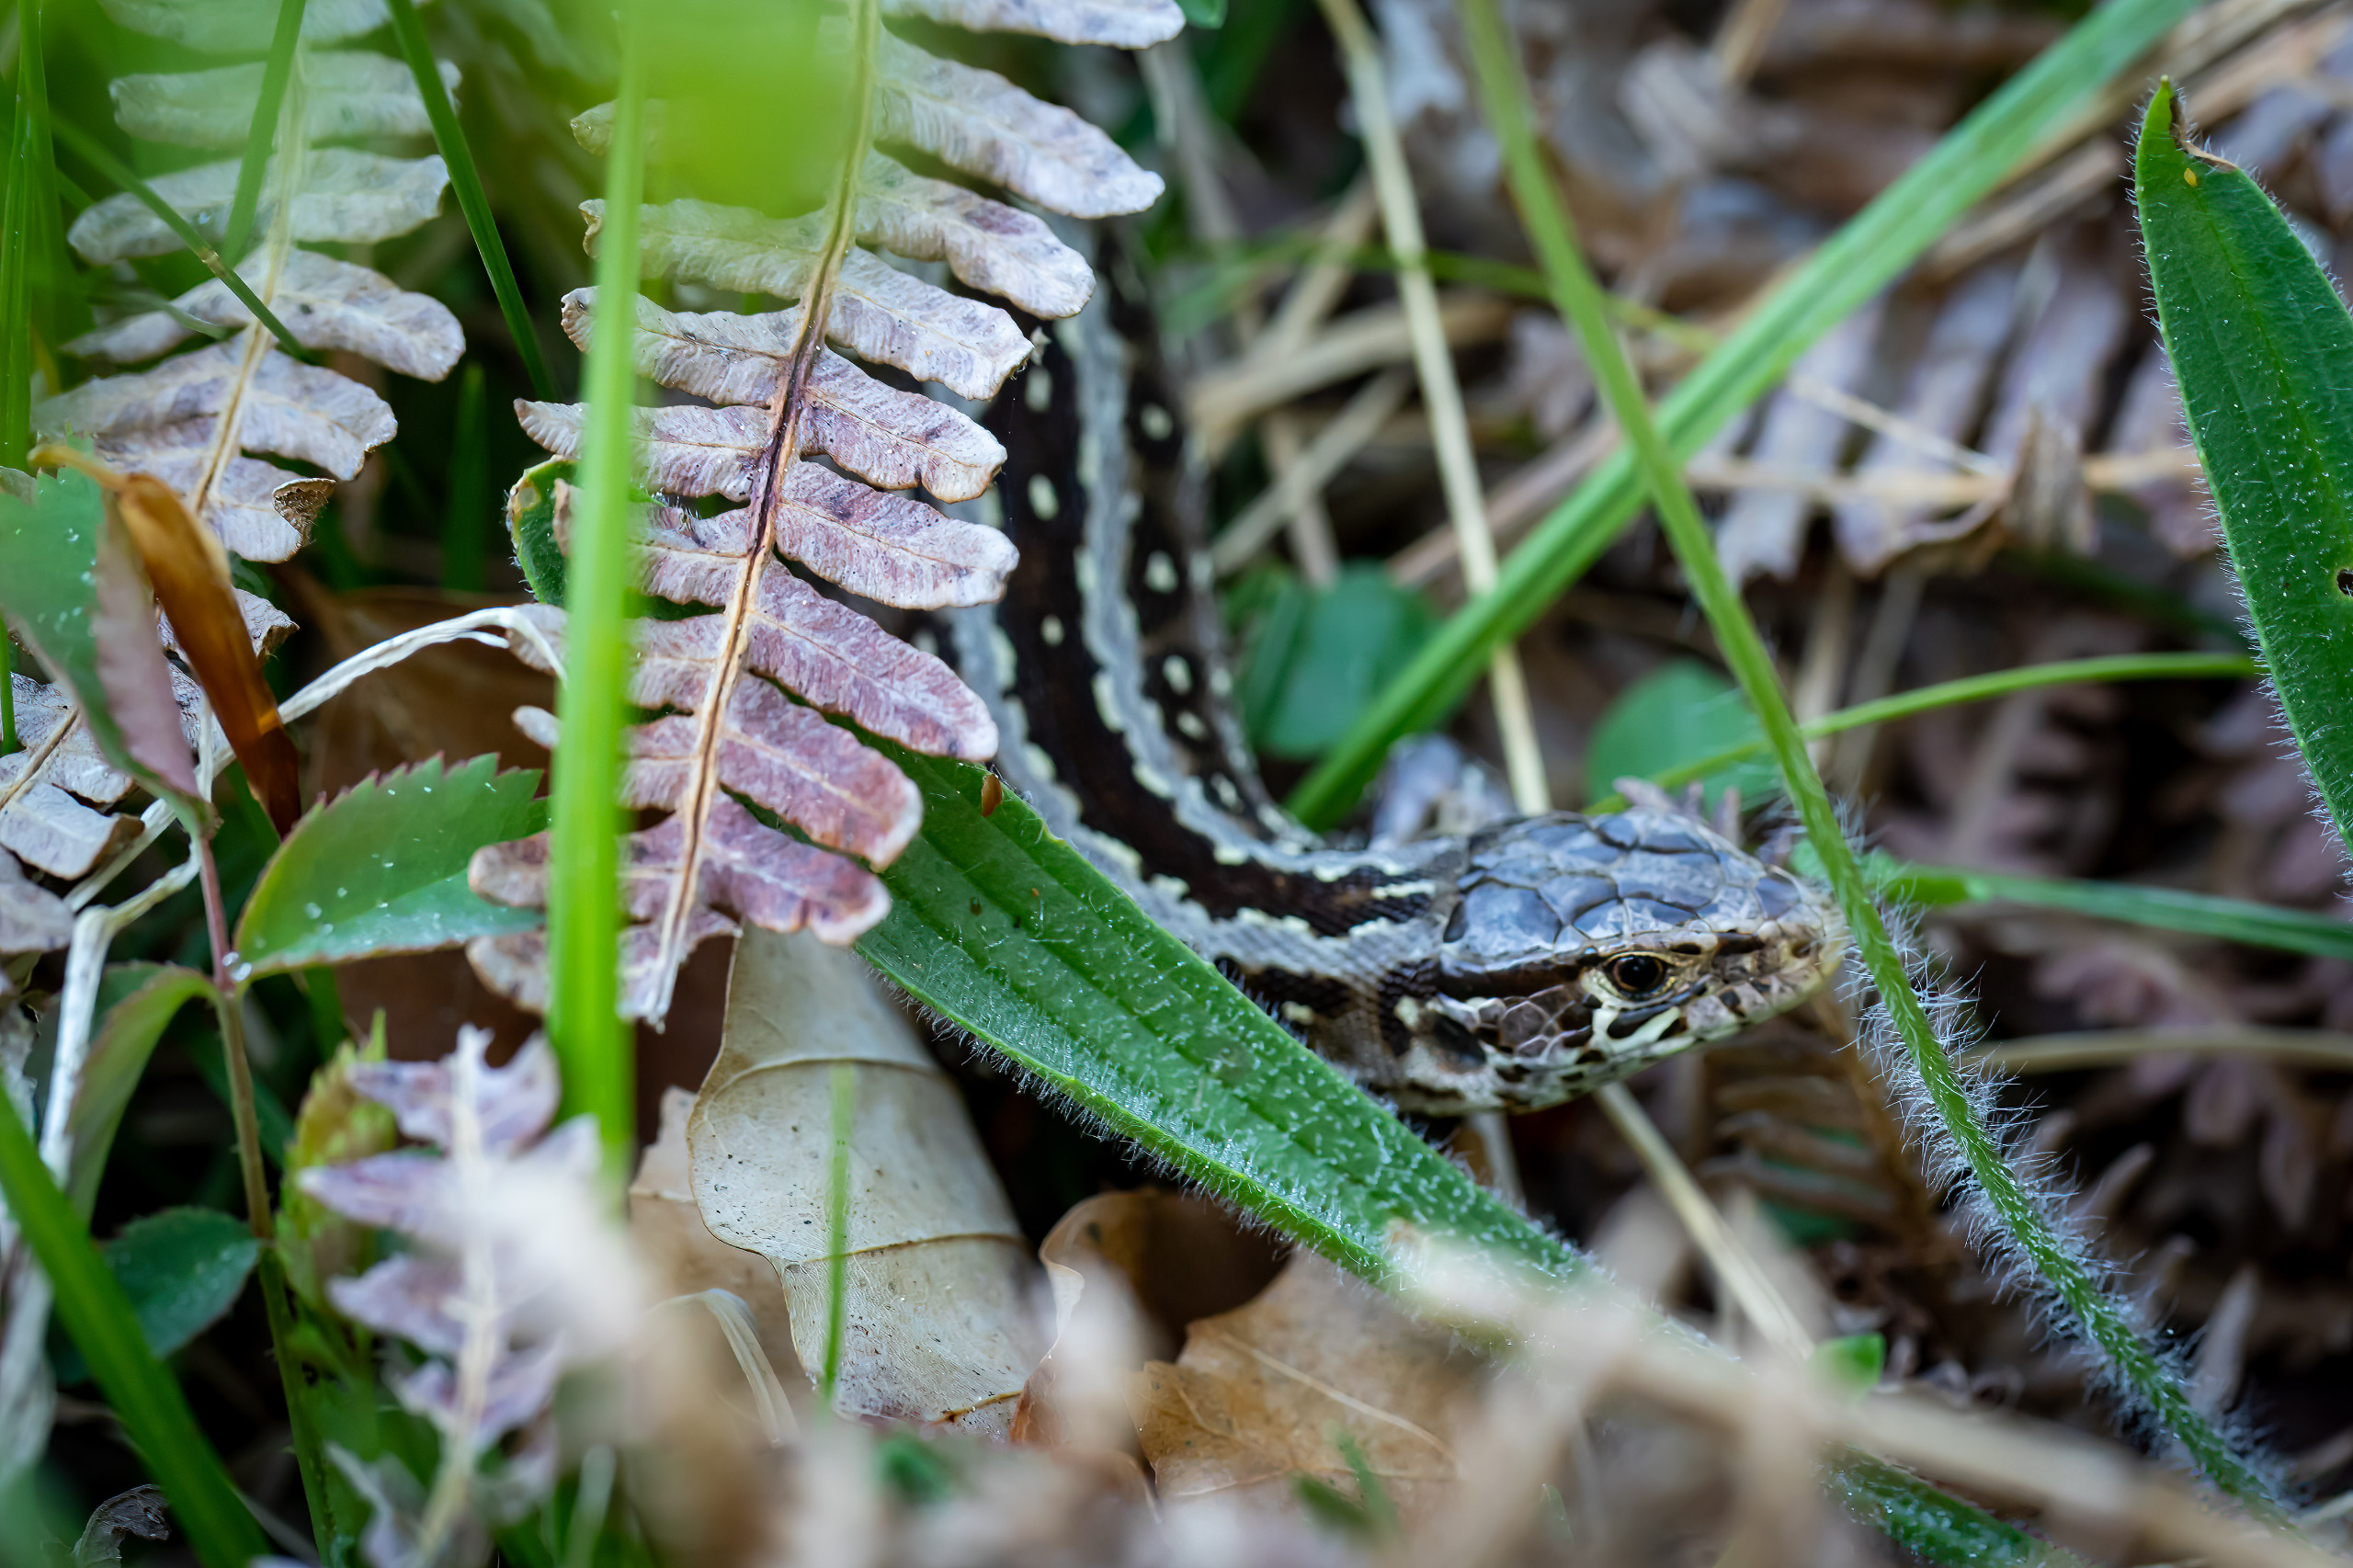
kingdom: Animalia
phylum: Chordata
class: Squamata
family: Lacertidae
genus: Lacerta
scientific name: Lacerta agilis
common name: Markfirben
